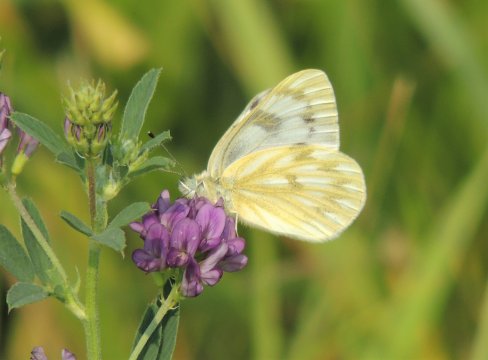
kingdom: Animalia
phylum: Arthropoda
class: Insecta
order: Lepidoptera
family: Pieridae
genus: Pontia
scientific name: Pontia occidentalis
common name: Western White
